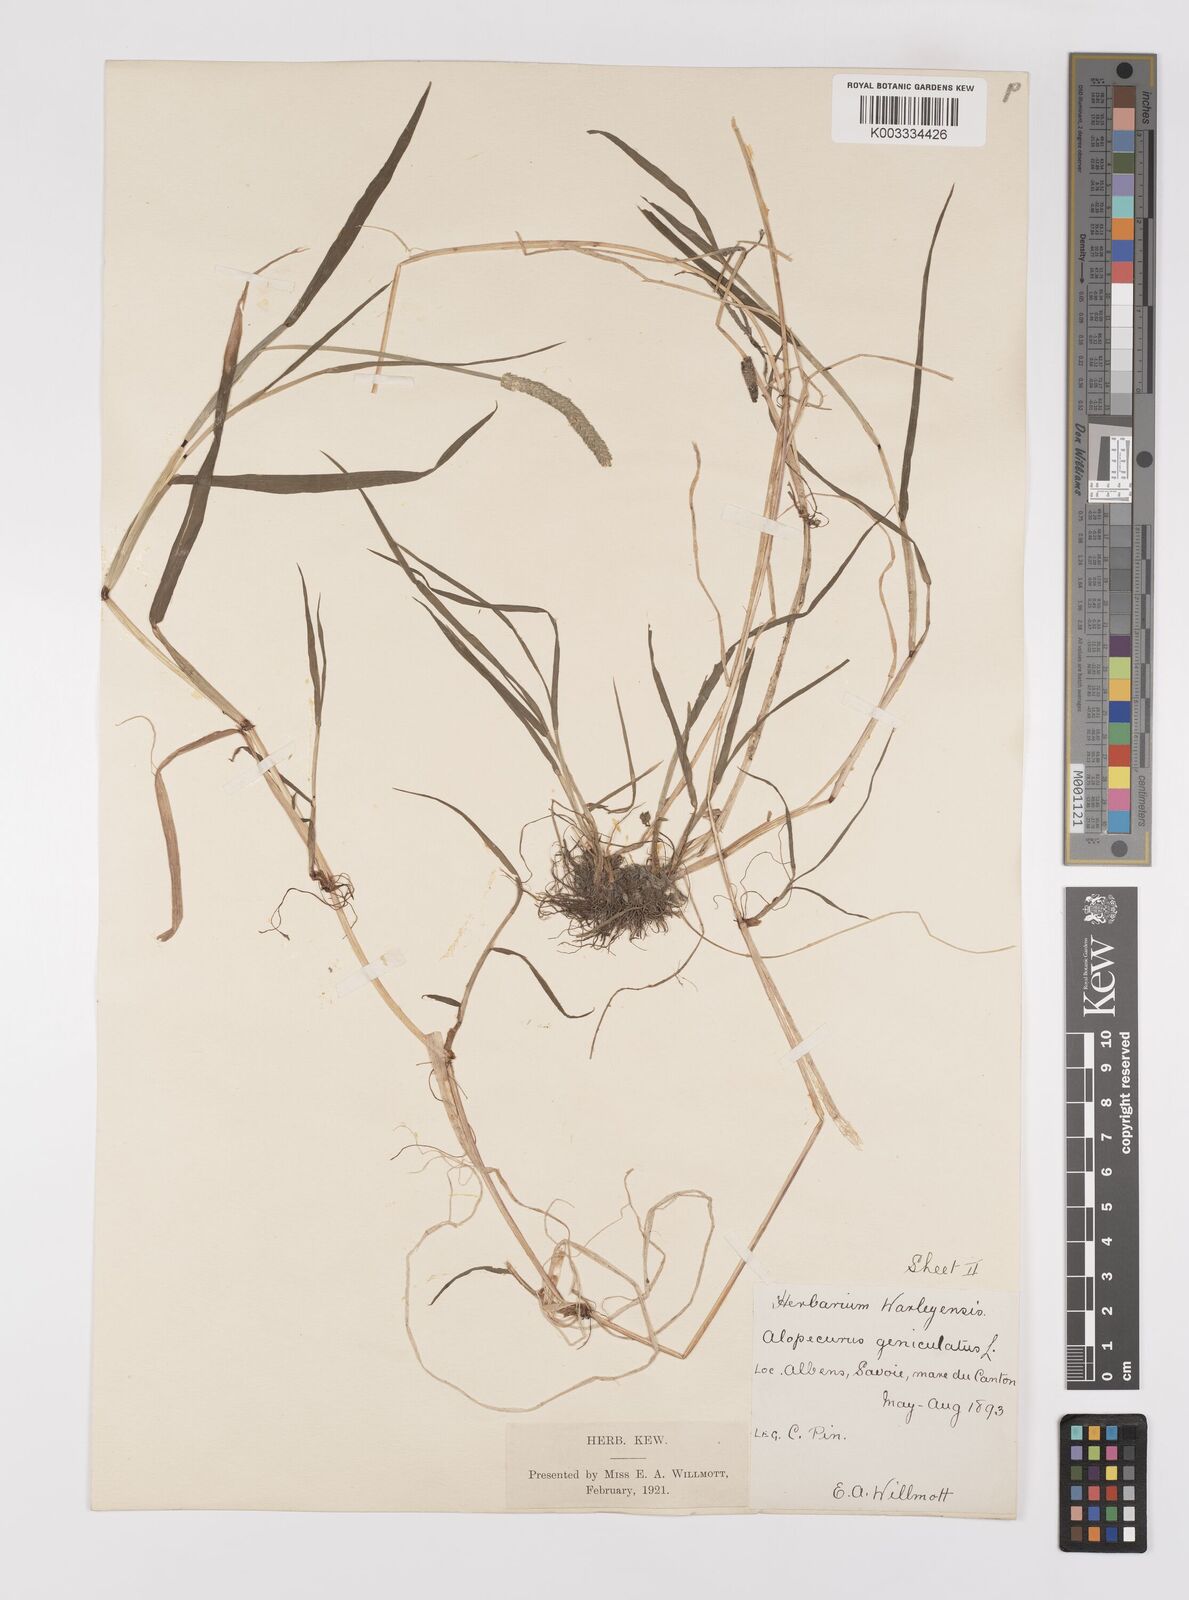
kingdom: Plantae
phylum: Tracheophyta
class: Liliopsida
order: Poales
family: Poaceae
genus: Alopecurus
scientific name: Alopecurus aequalis
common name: Orange foxtail
